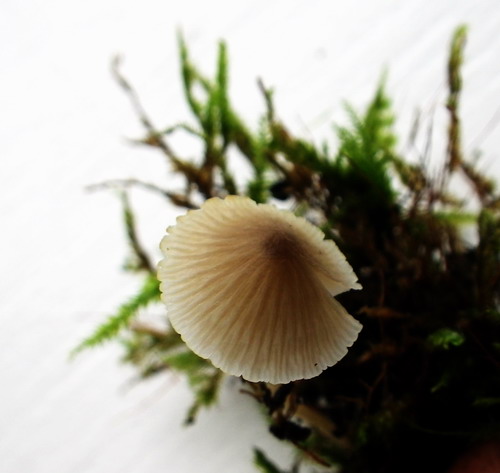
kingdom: Fungi
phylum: Basidiomycota
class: Agaricomycetes
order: Agaricales
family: Porotheleaceae
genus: Phloeomana
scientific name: Phloeomana hiemalis
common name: sen huesvamp
